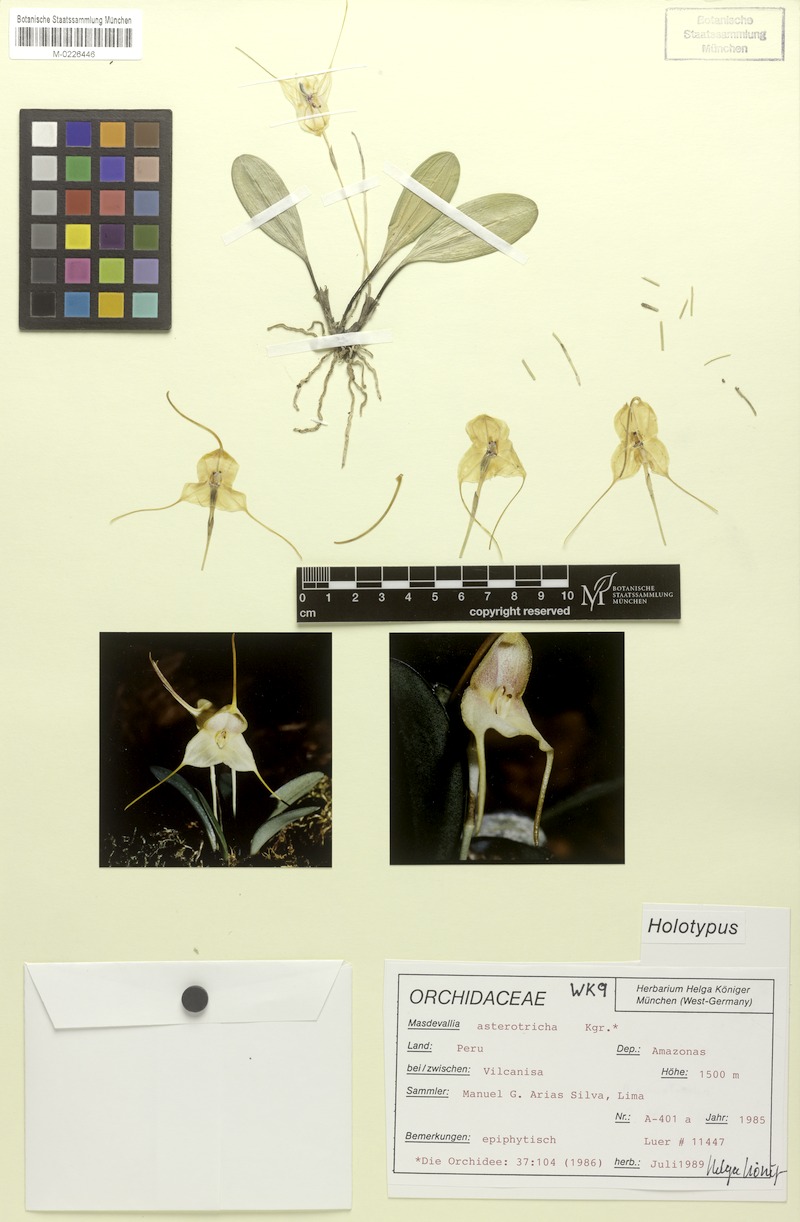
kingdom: Plantae
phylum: Tracheophyta
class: Liliopsida
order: Asparagales
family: Orchidaceae
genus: Masdevallia
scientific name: Masdevallia asterotricha
